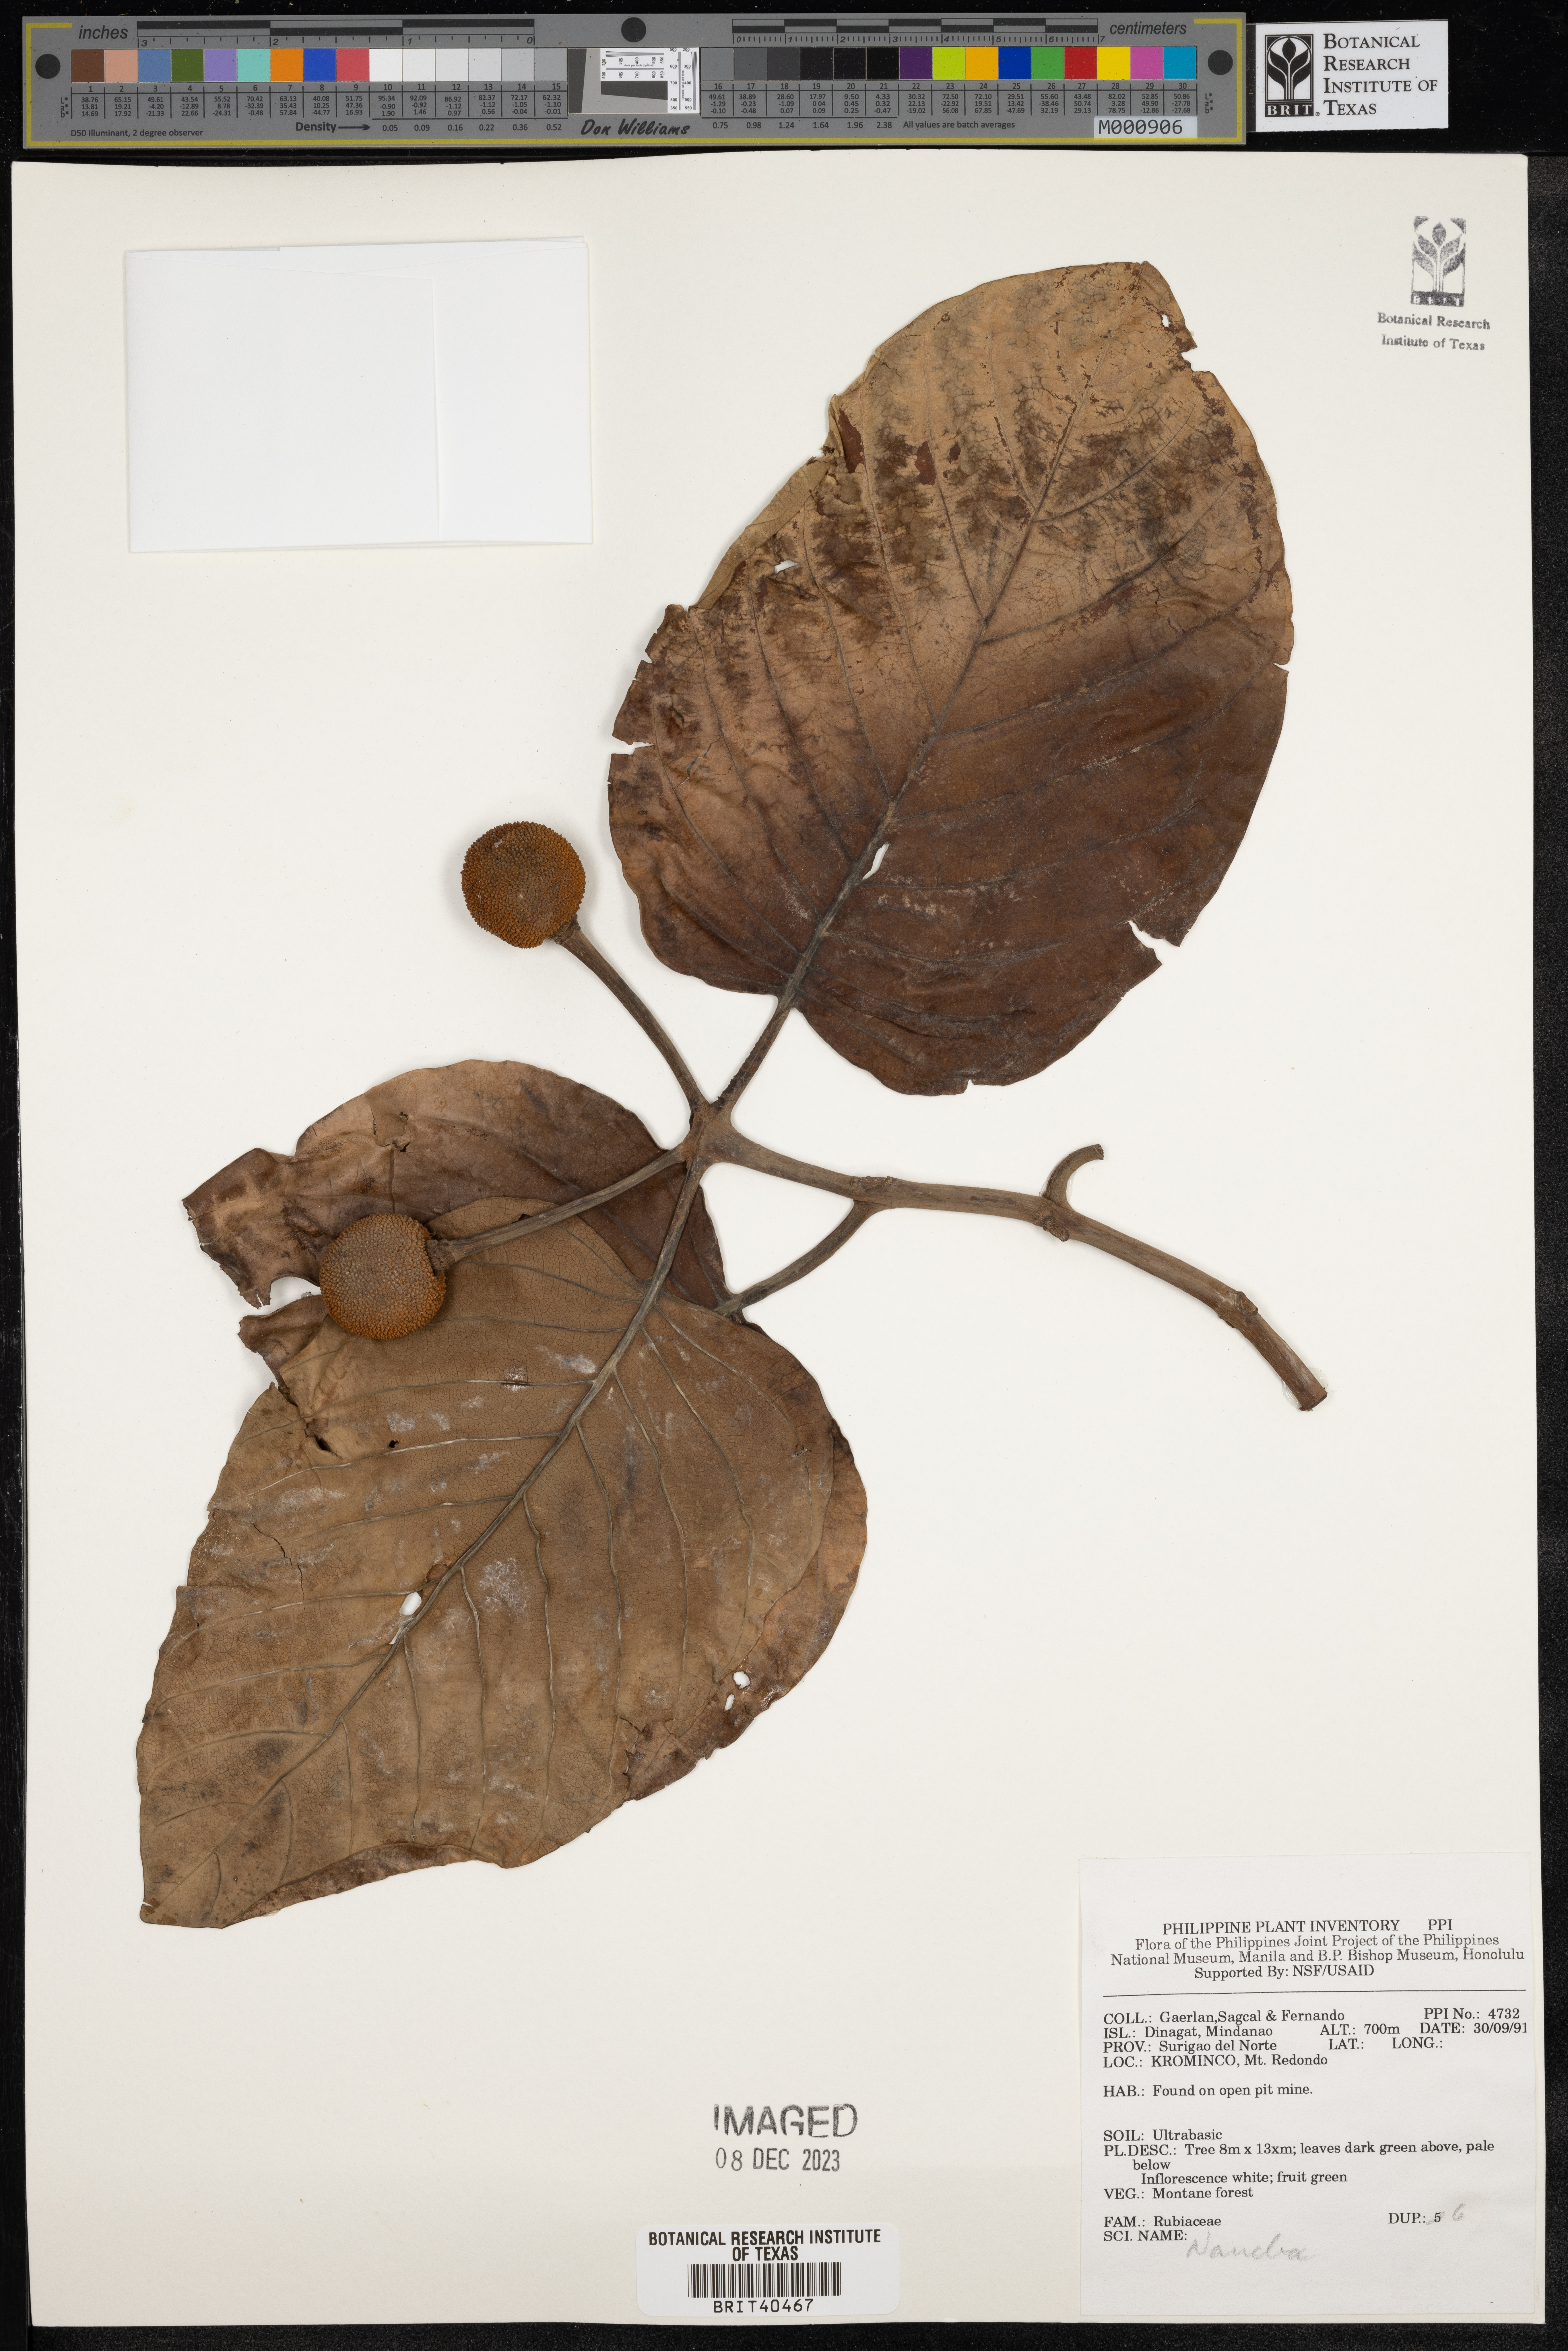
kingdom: Plantae
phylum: Tracheophyta
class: Magnoliopsida
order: Gentianales
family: Rubiaceae
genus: Nauclea
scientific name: Nauclea
